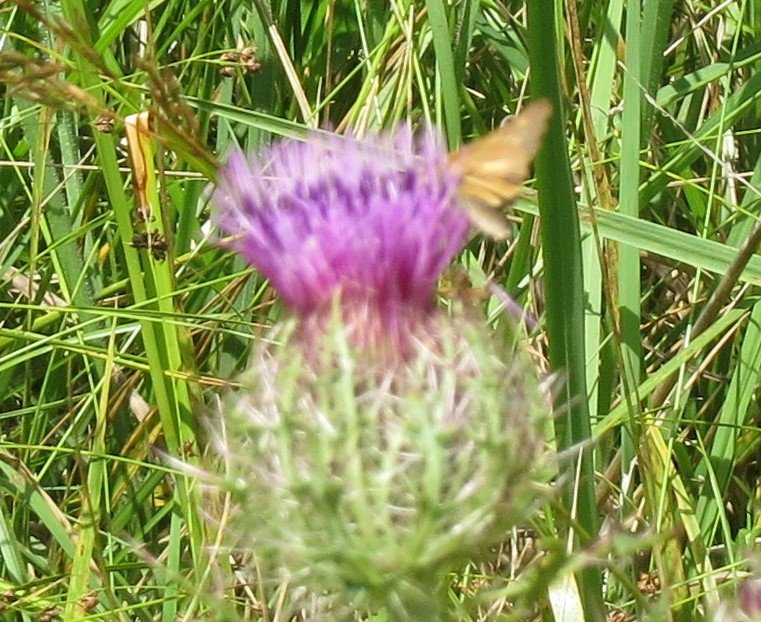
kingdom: Animalia
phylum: Arthropoda
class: Insecta
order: Lepidoptera
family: Hesperiidae
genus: Euphyes
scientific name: Euphyes dion
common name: Dion Skipper
